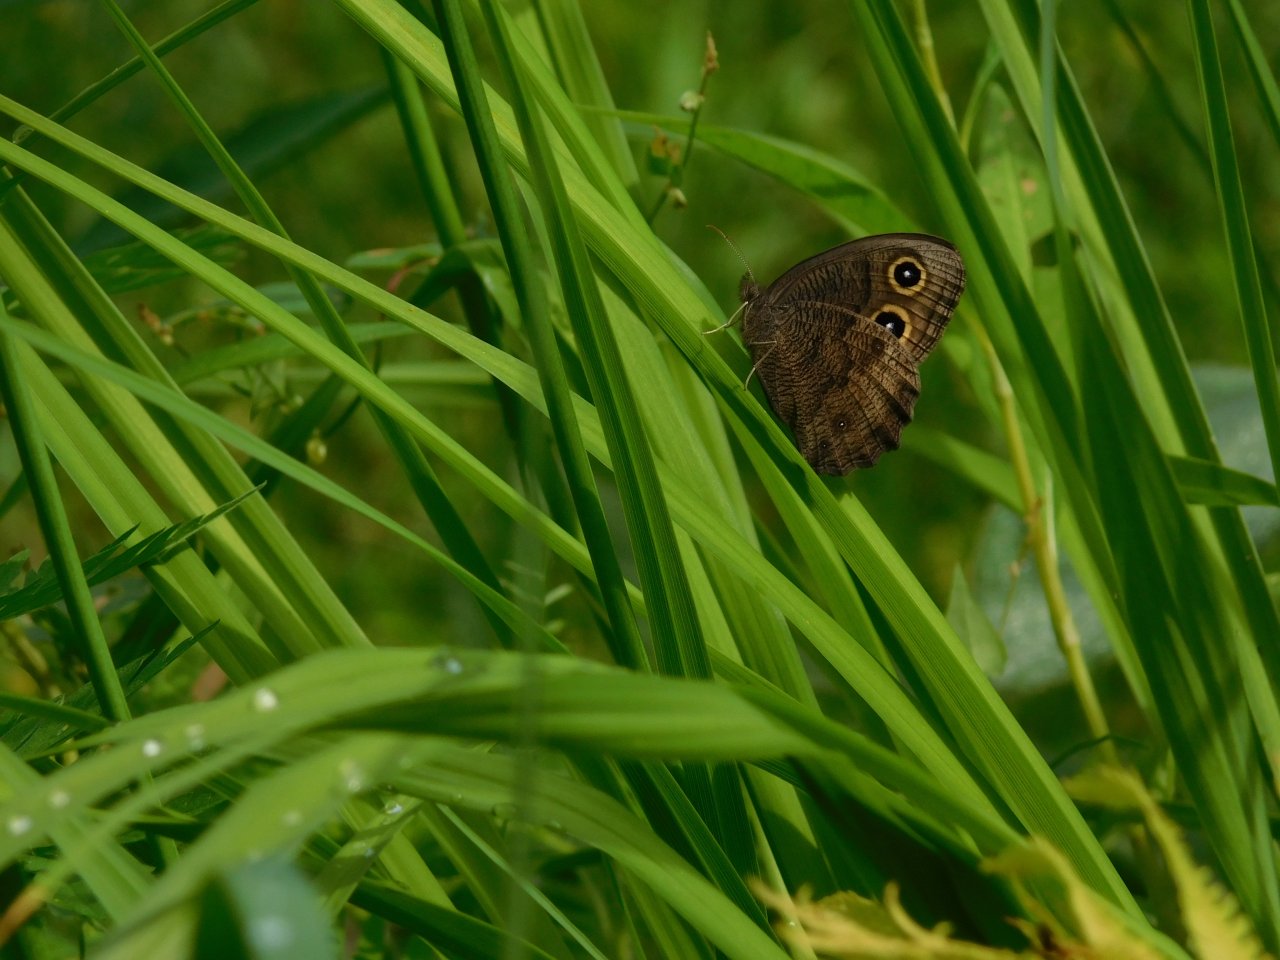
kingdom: Animalia
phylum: Arthropoda
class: Insecta
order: Lepidoptera
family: Nymphalidae
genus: Cercyonis
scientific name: Cercyonis pegala
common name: Common Wood-Nymph
